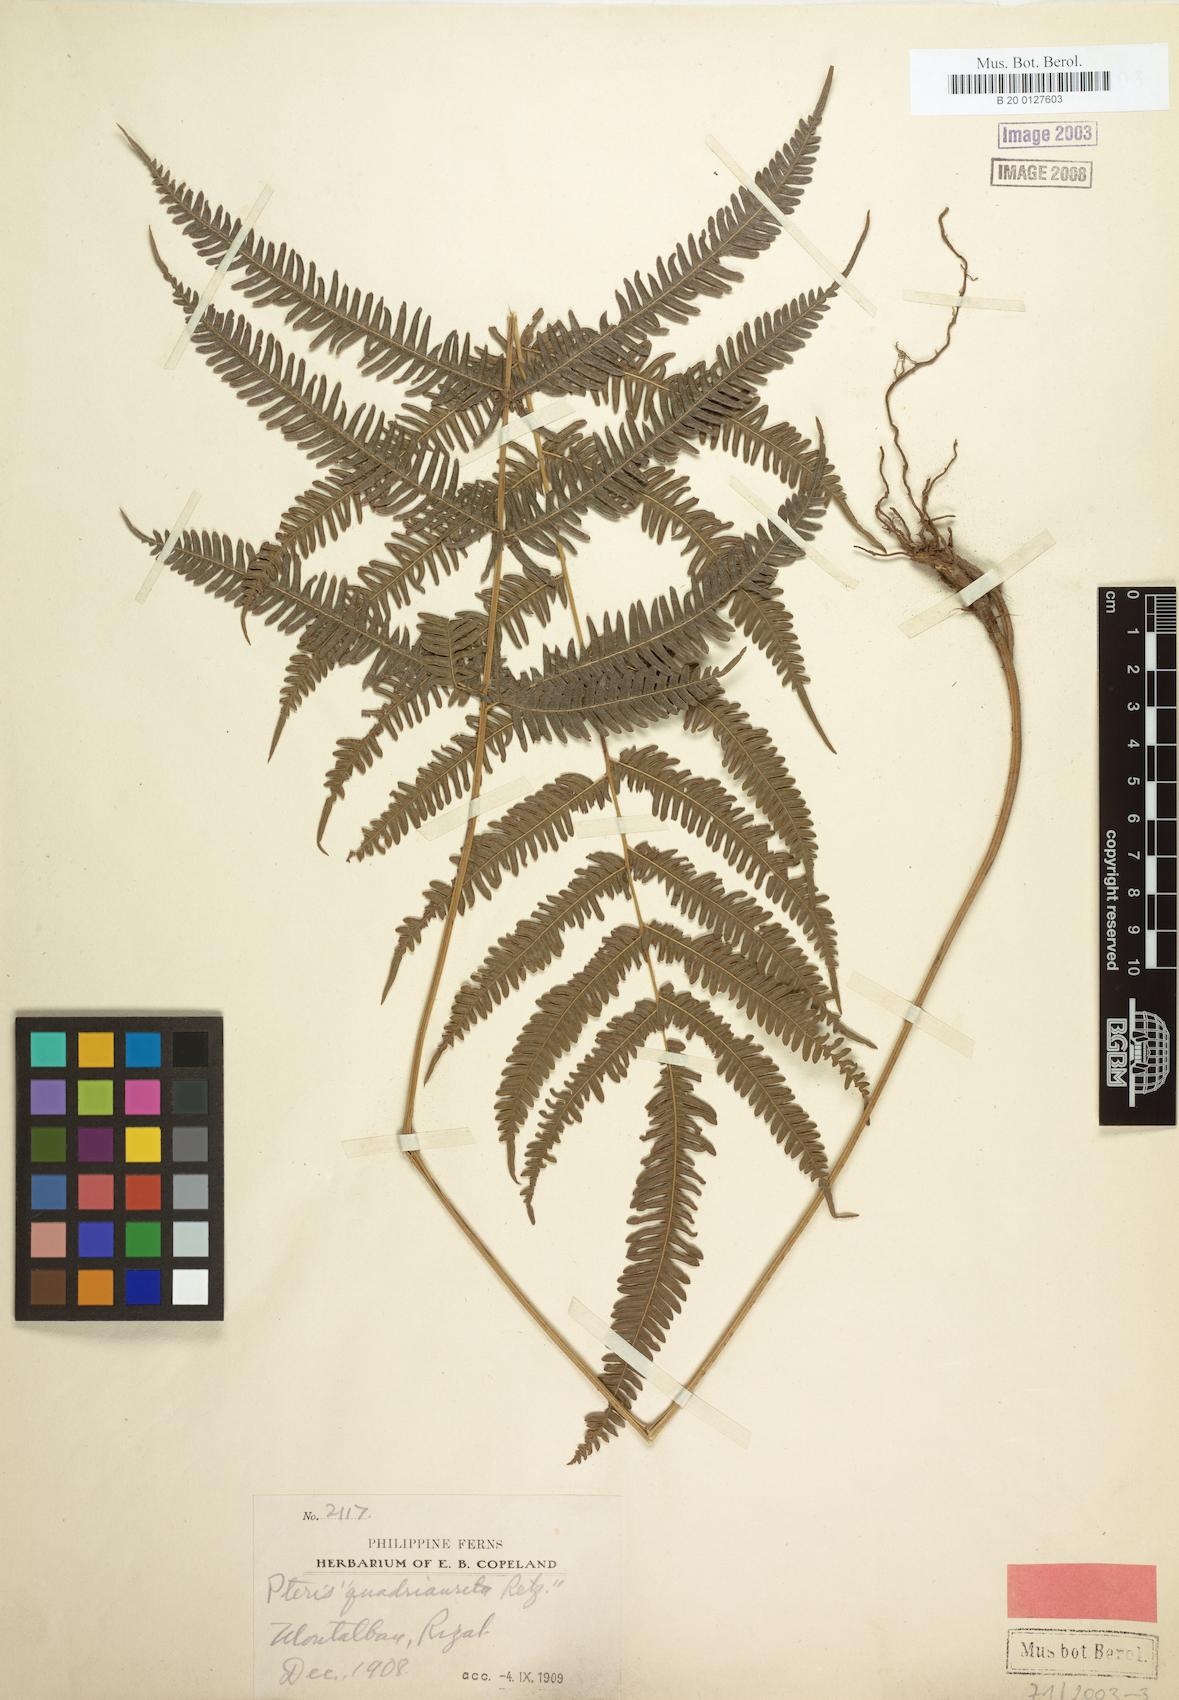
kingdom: Plantae
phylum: Tracheophyta
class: Polypodiopsida
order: Polypodiales
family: Pteridaceae
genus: Pteris
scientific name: Pteris oppositipinnata
